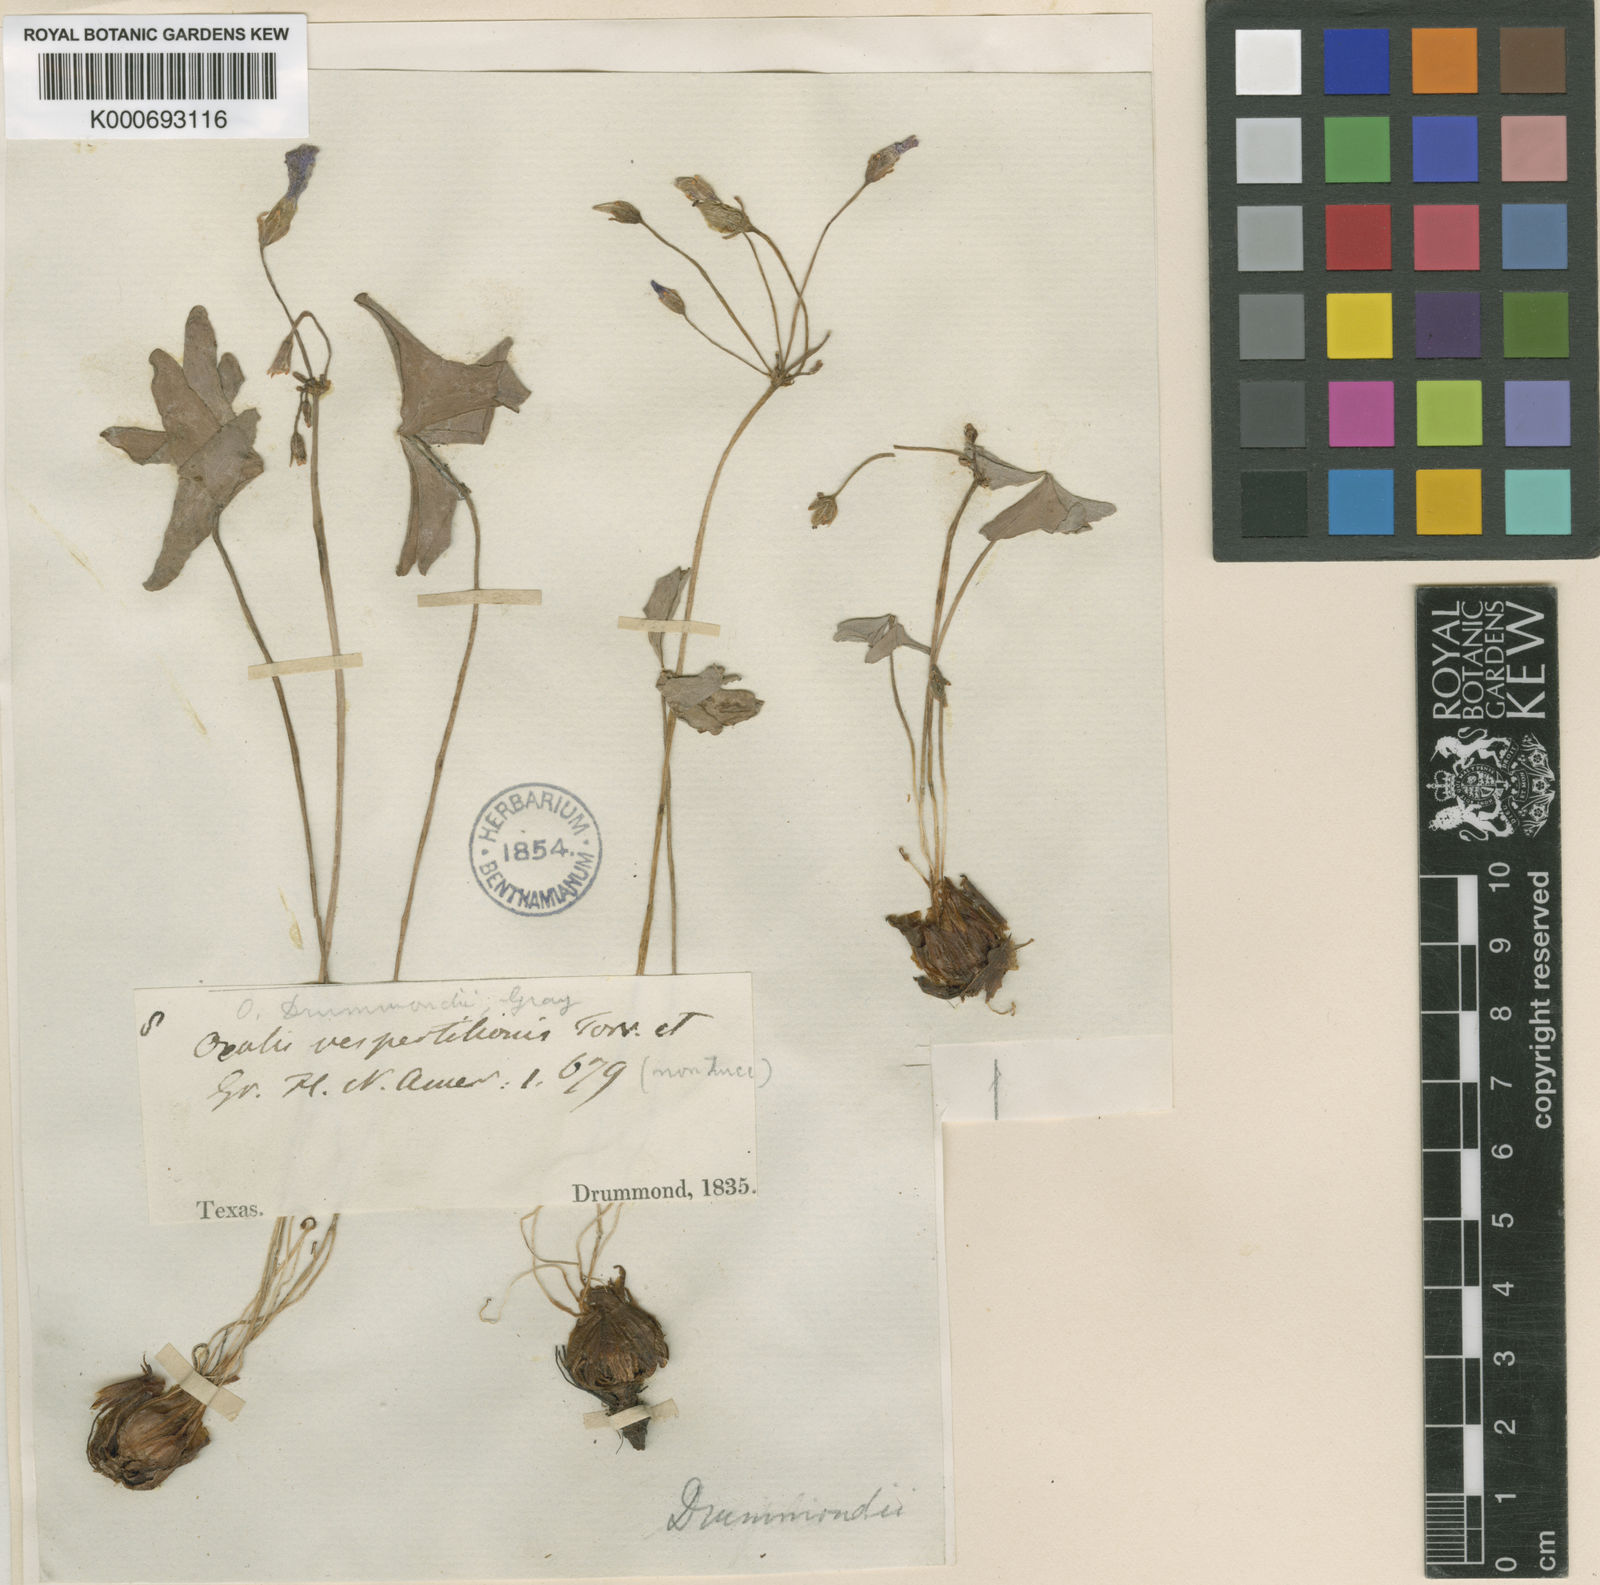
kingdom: Plantae
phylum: Tracheophyta
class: Magnoliopsida
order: Oxalidales
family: Oxalidaceae
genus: Oxalis
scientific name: Oxalis drummondii
